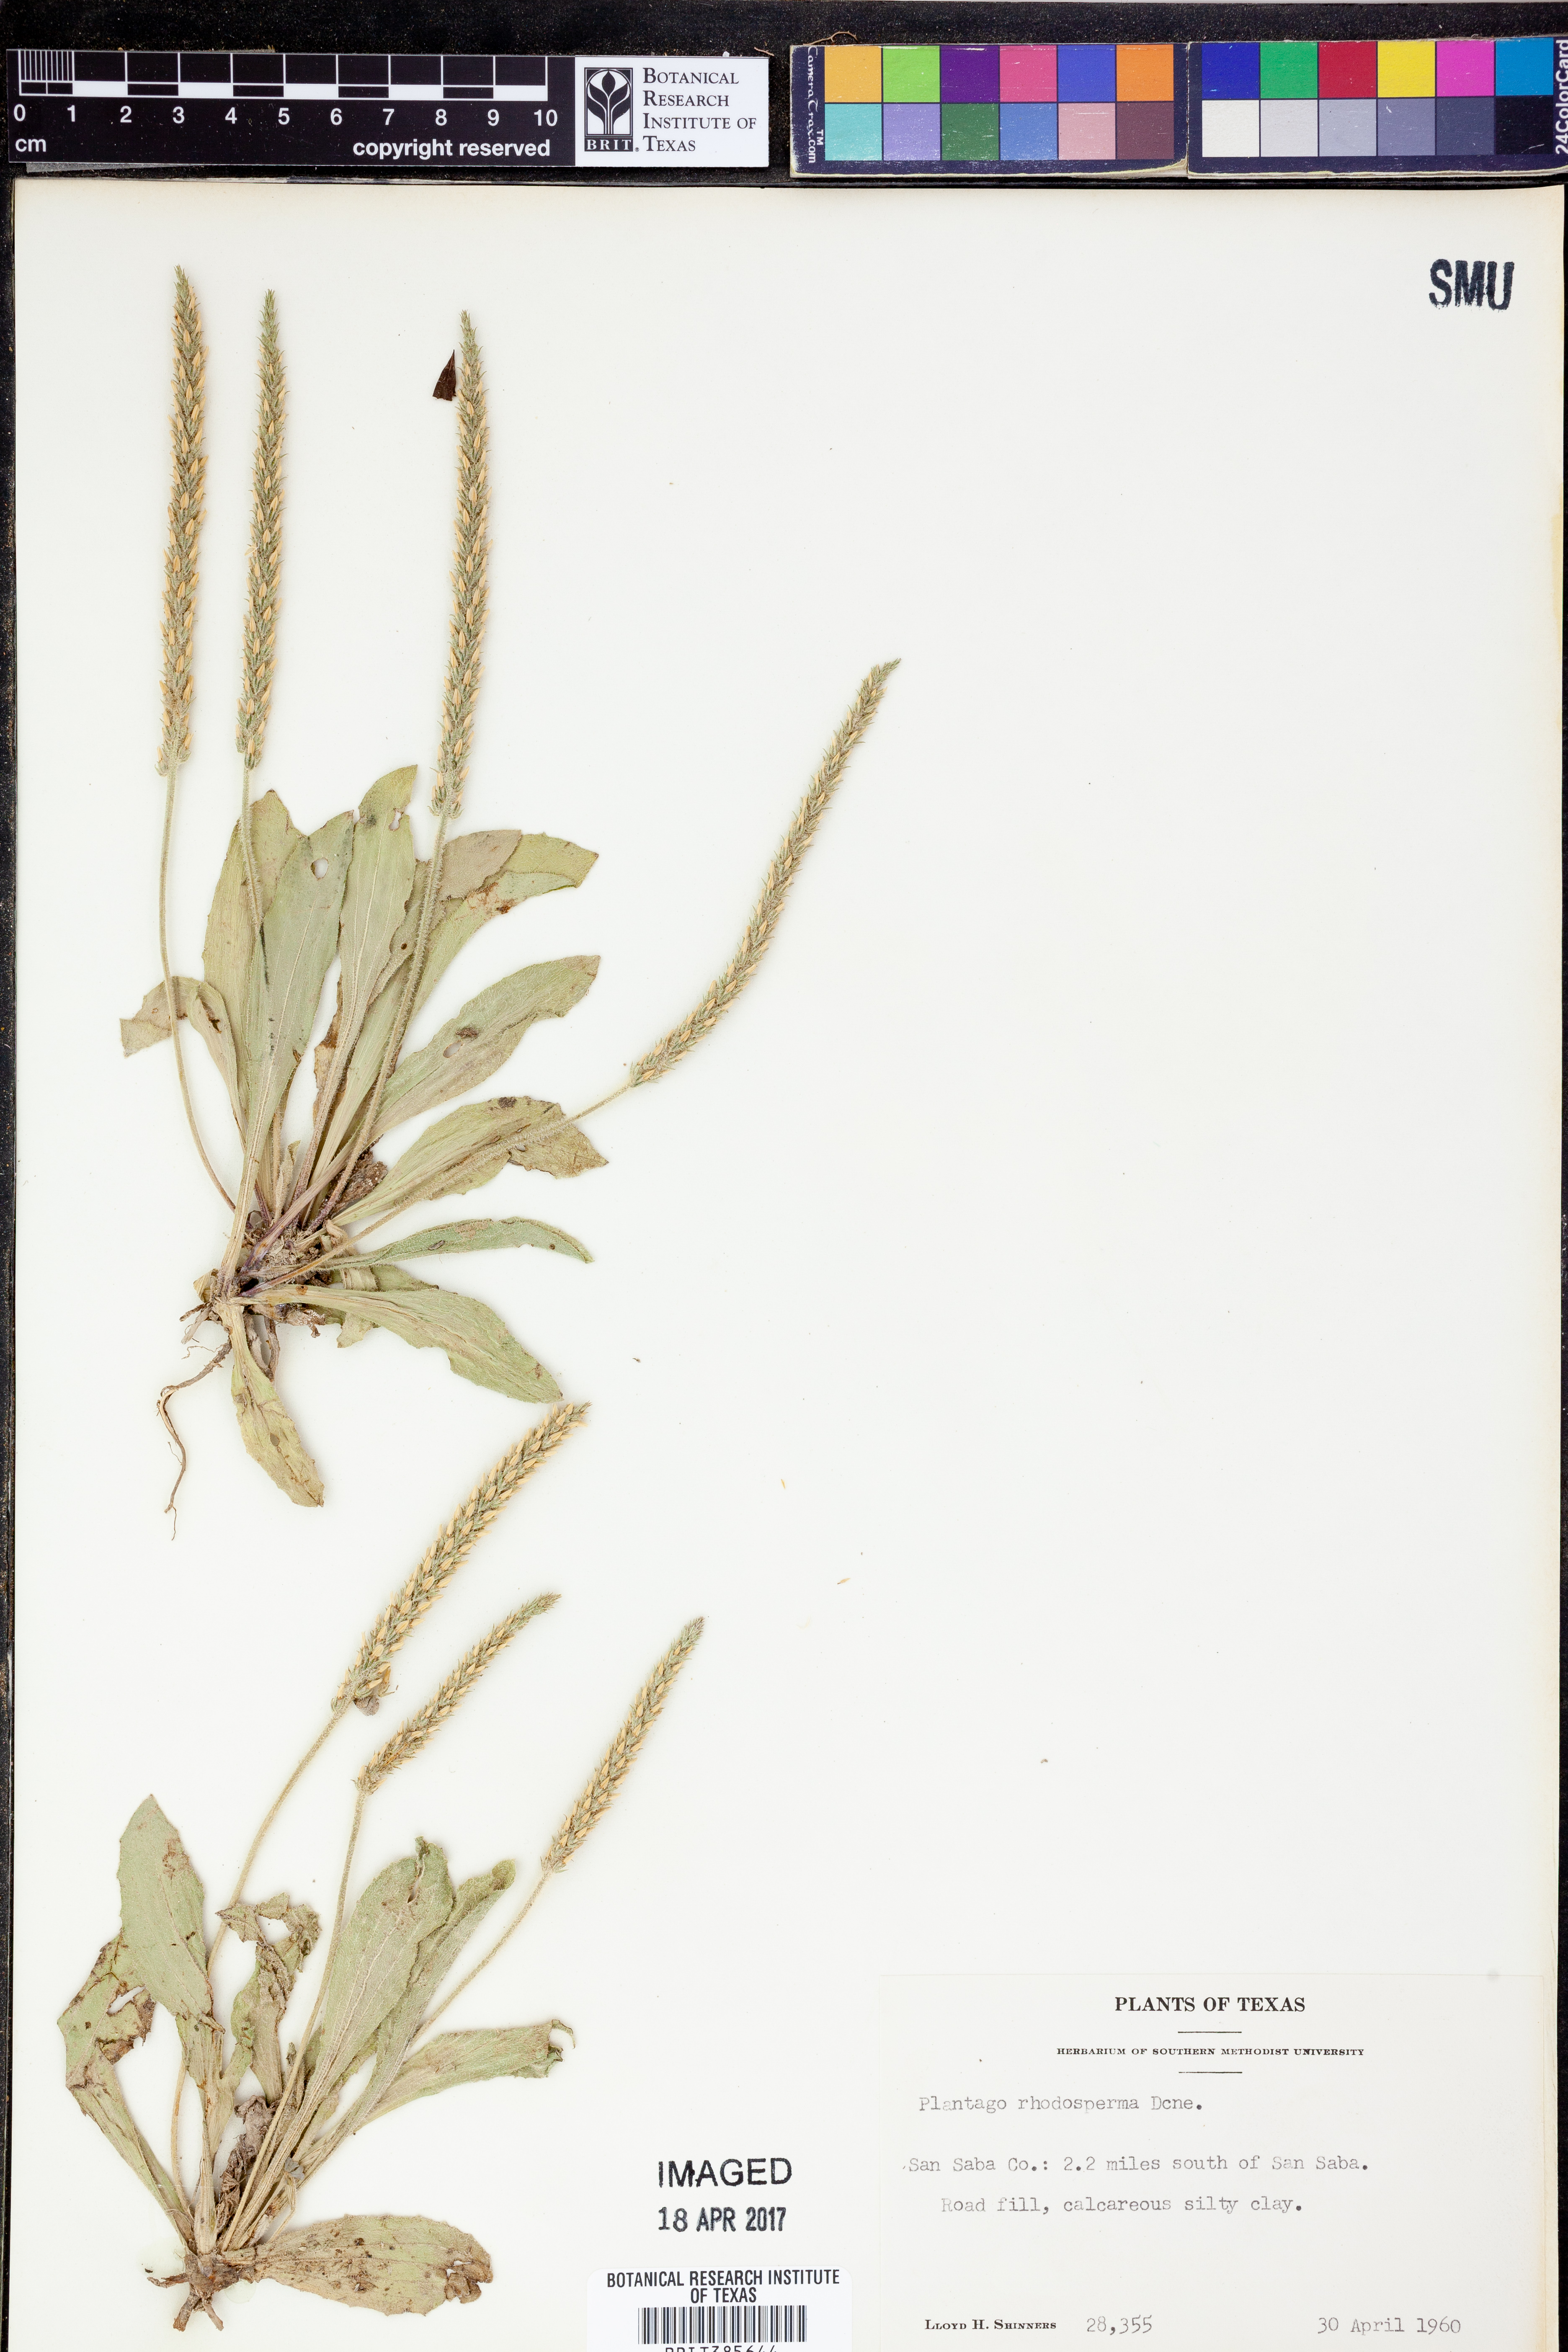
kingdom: Plantae
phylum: Tracheophyta
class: Magnoliopsida
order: Lamiales
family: Plantaginaceae
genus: Plantago
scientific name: Plantago rhodosperma
